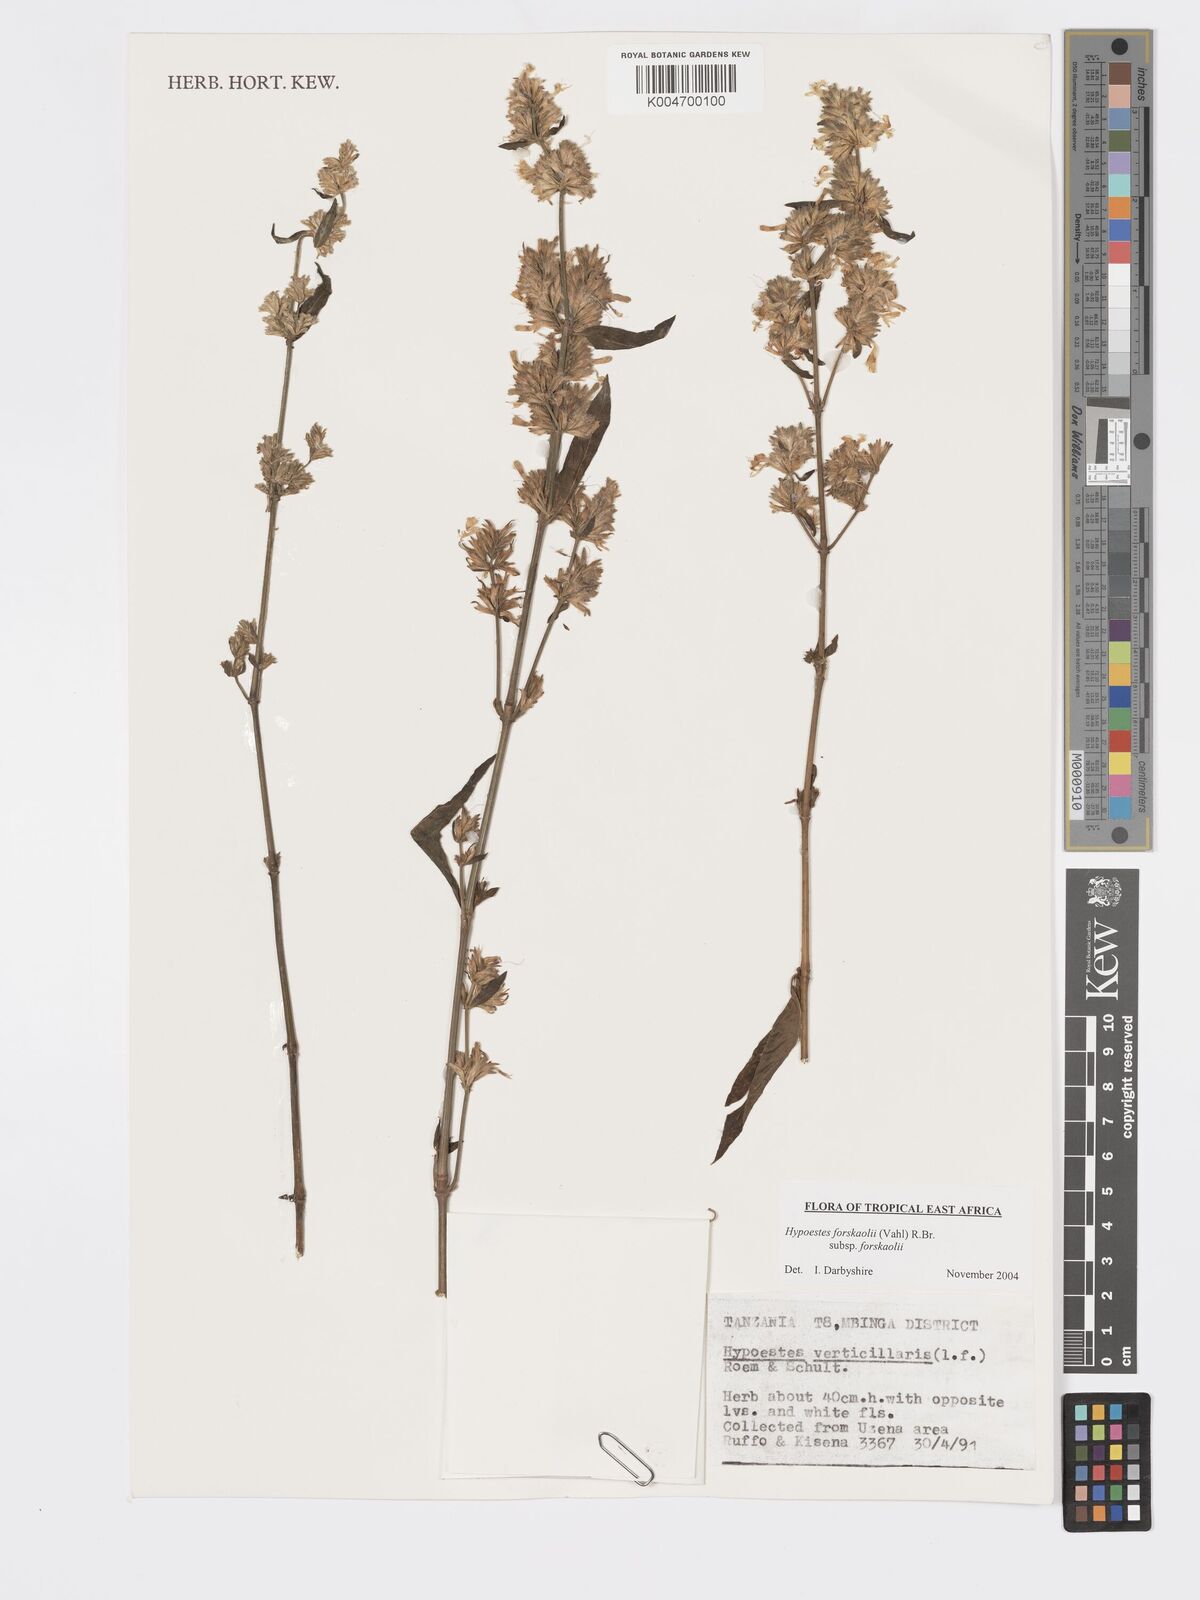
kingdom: Plantae
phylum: Tracheophyta
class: Magnoliopsida
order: Lamiales
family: Acanthaceae
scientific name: Acanthaceae
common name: Acanthaceae
